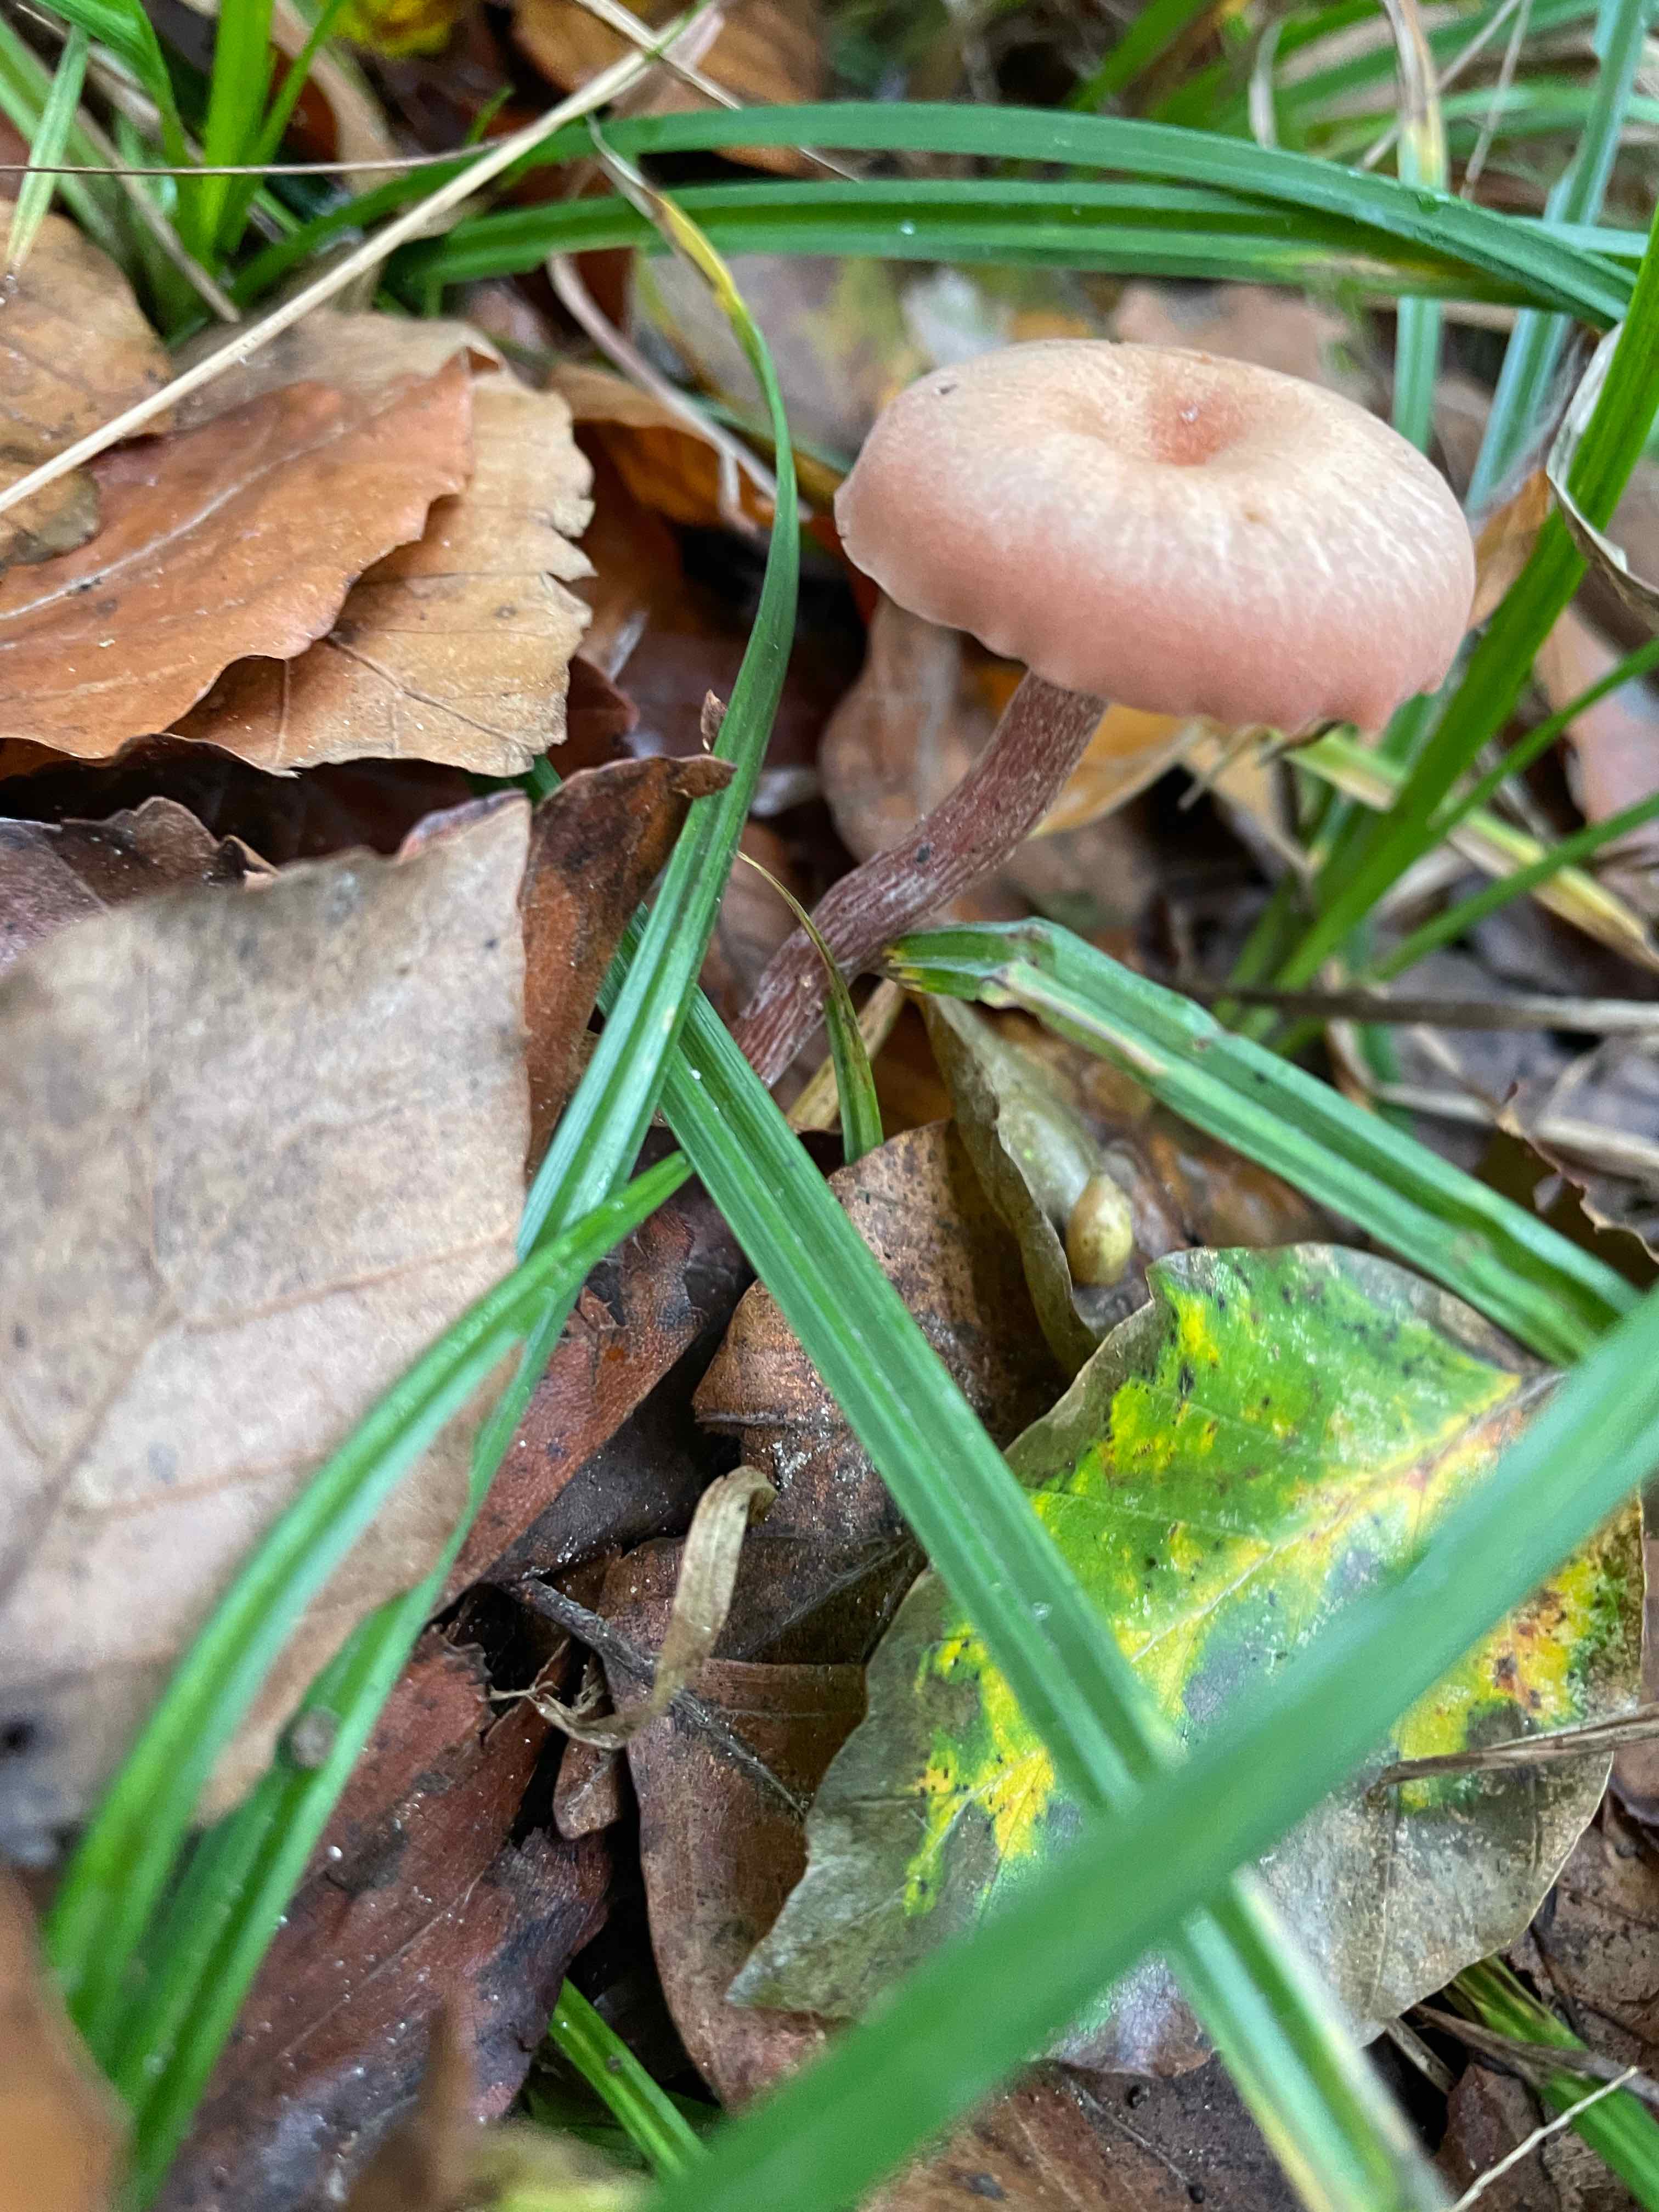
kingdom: Fungi
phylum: Basidiomycota
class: Agaricomycetes
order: Agaricales
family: Hydnangiaceae
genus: Laccaria
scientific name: Laccaria laccata
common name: rød ametysthat
